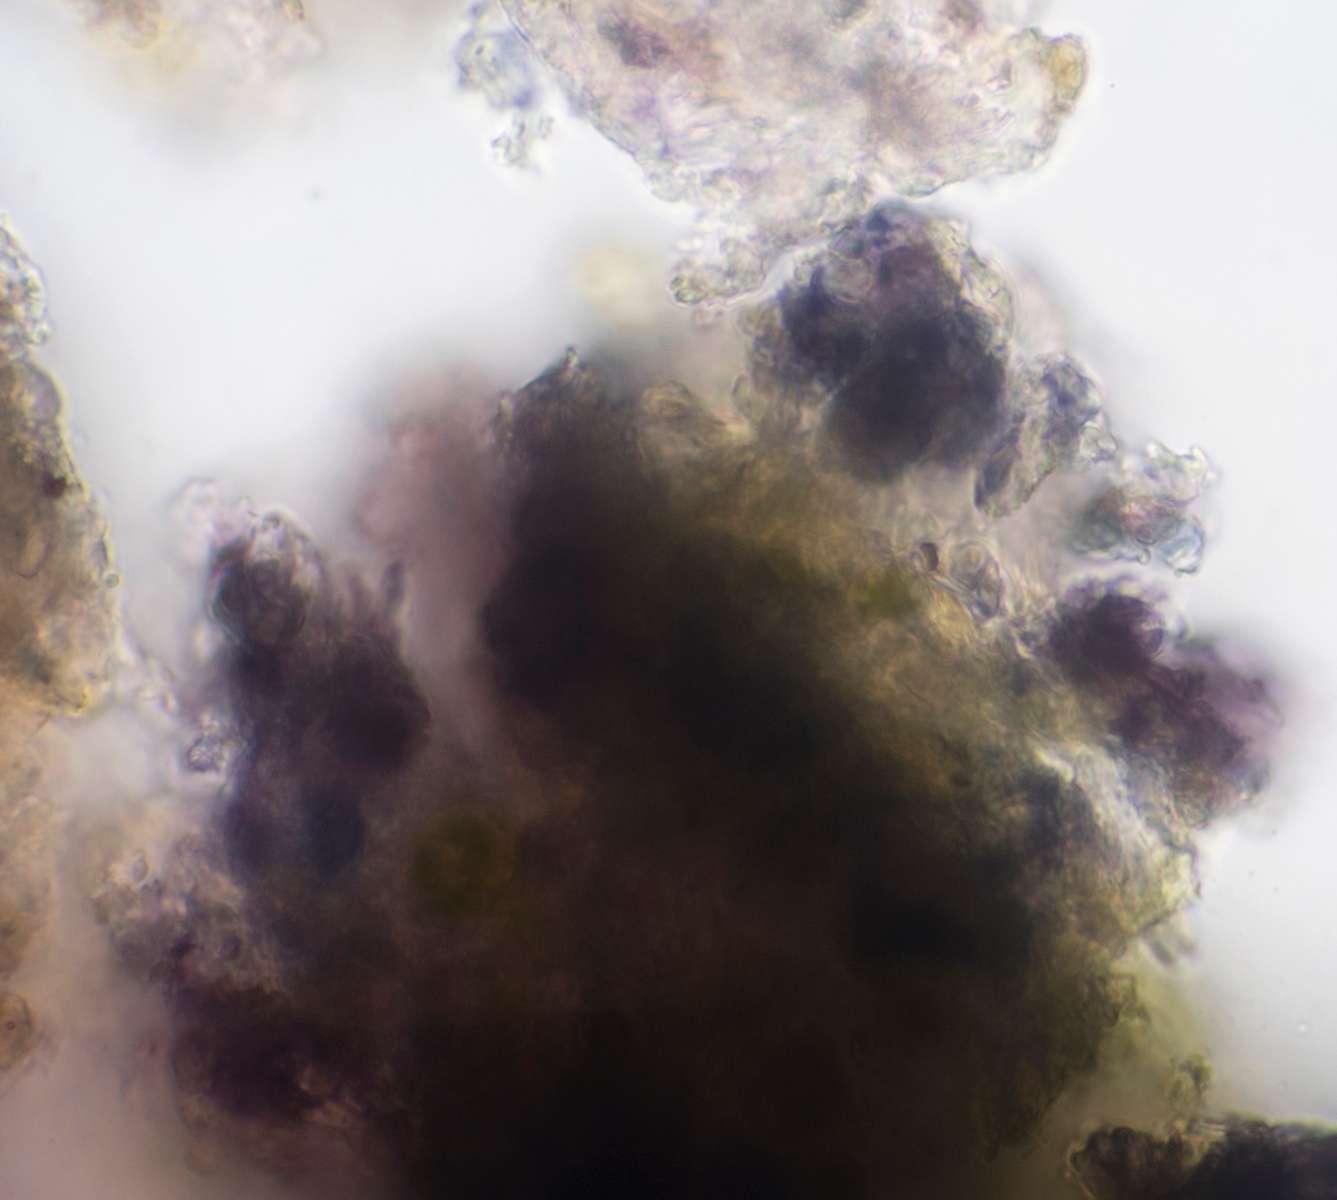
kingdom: Fungi
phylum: Ascomycota
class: Lecanoromycetes
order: Lecideales
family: Lecideaceae
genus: Porpidia
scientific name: Porpidia tuberculosa
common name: broget bredskivelav
